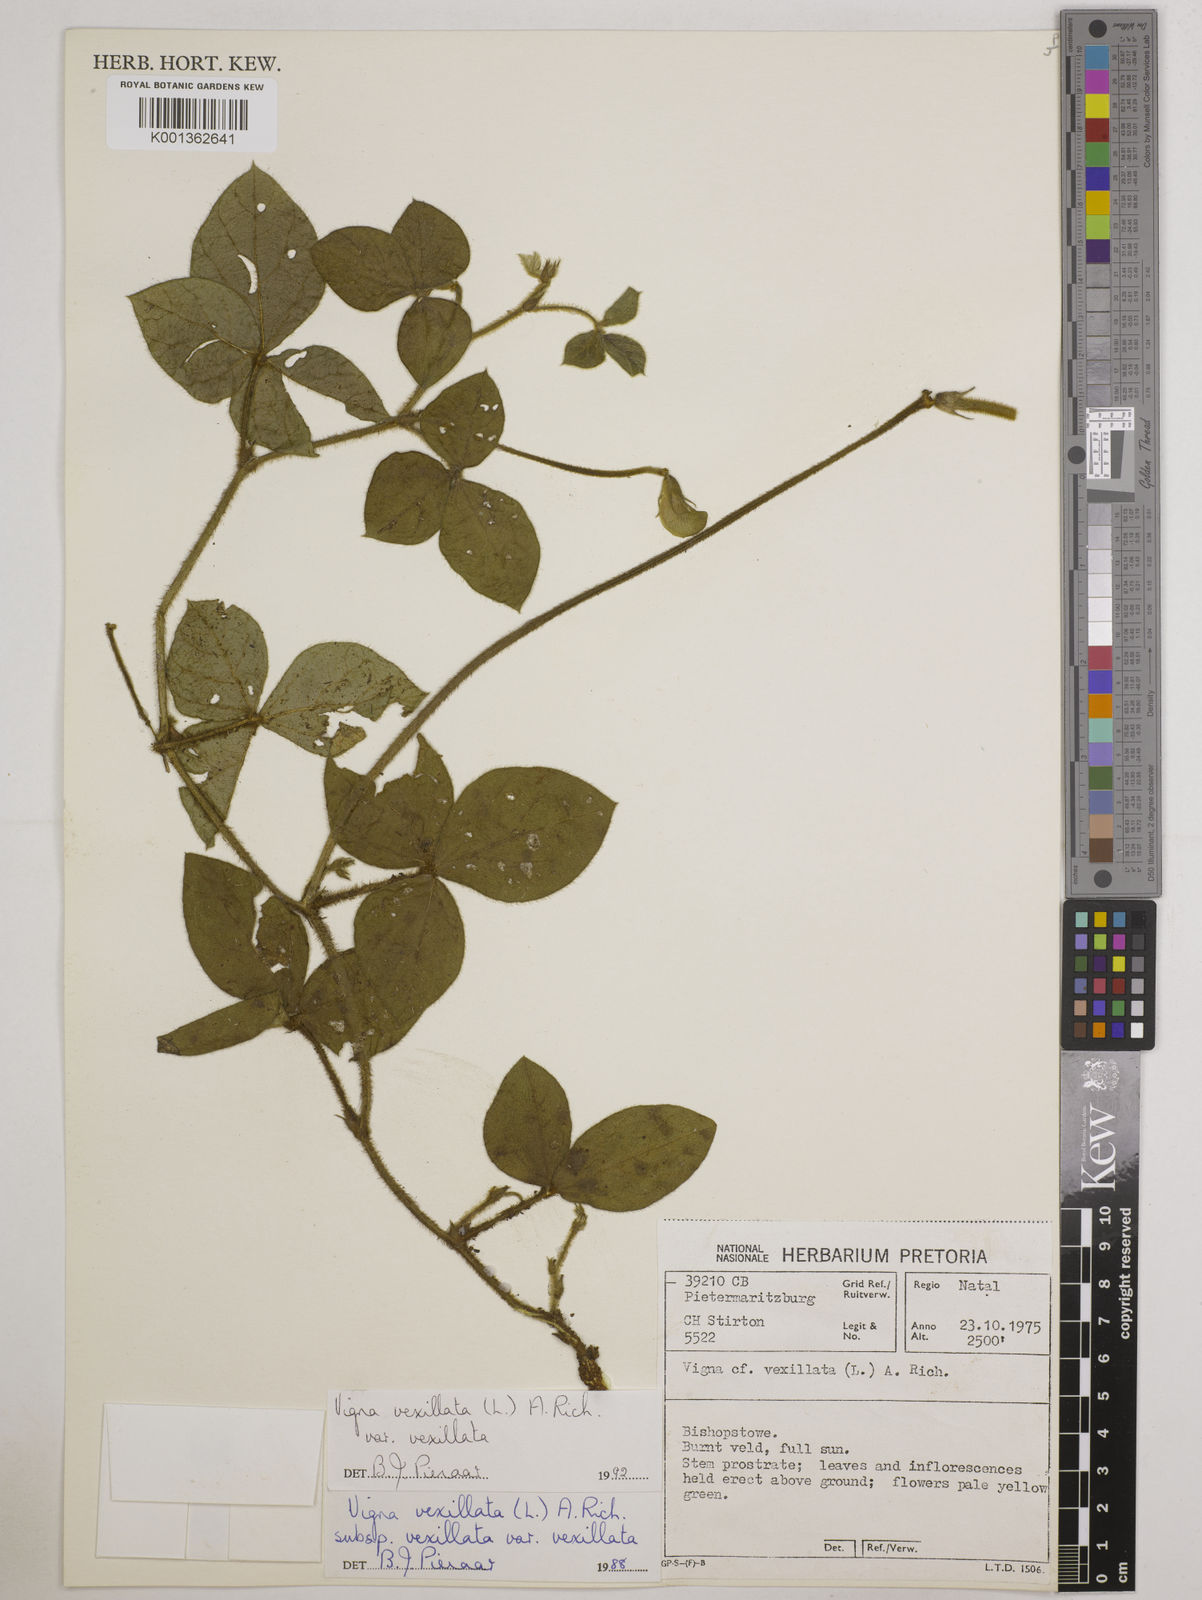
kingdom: Plantae
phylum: Tracheophyta
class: Magnoliopsida
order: Fabales
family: Fabaceae
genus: Vigna
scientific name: Vigna vexillata
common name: Zombi pea
